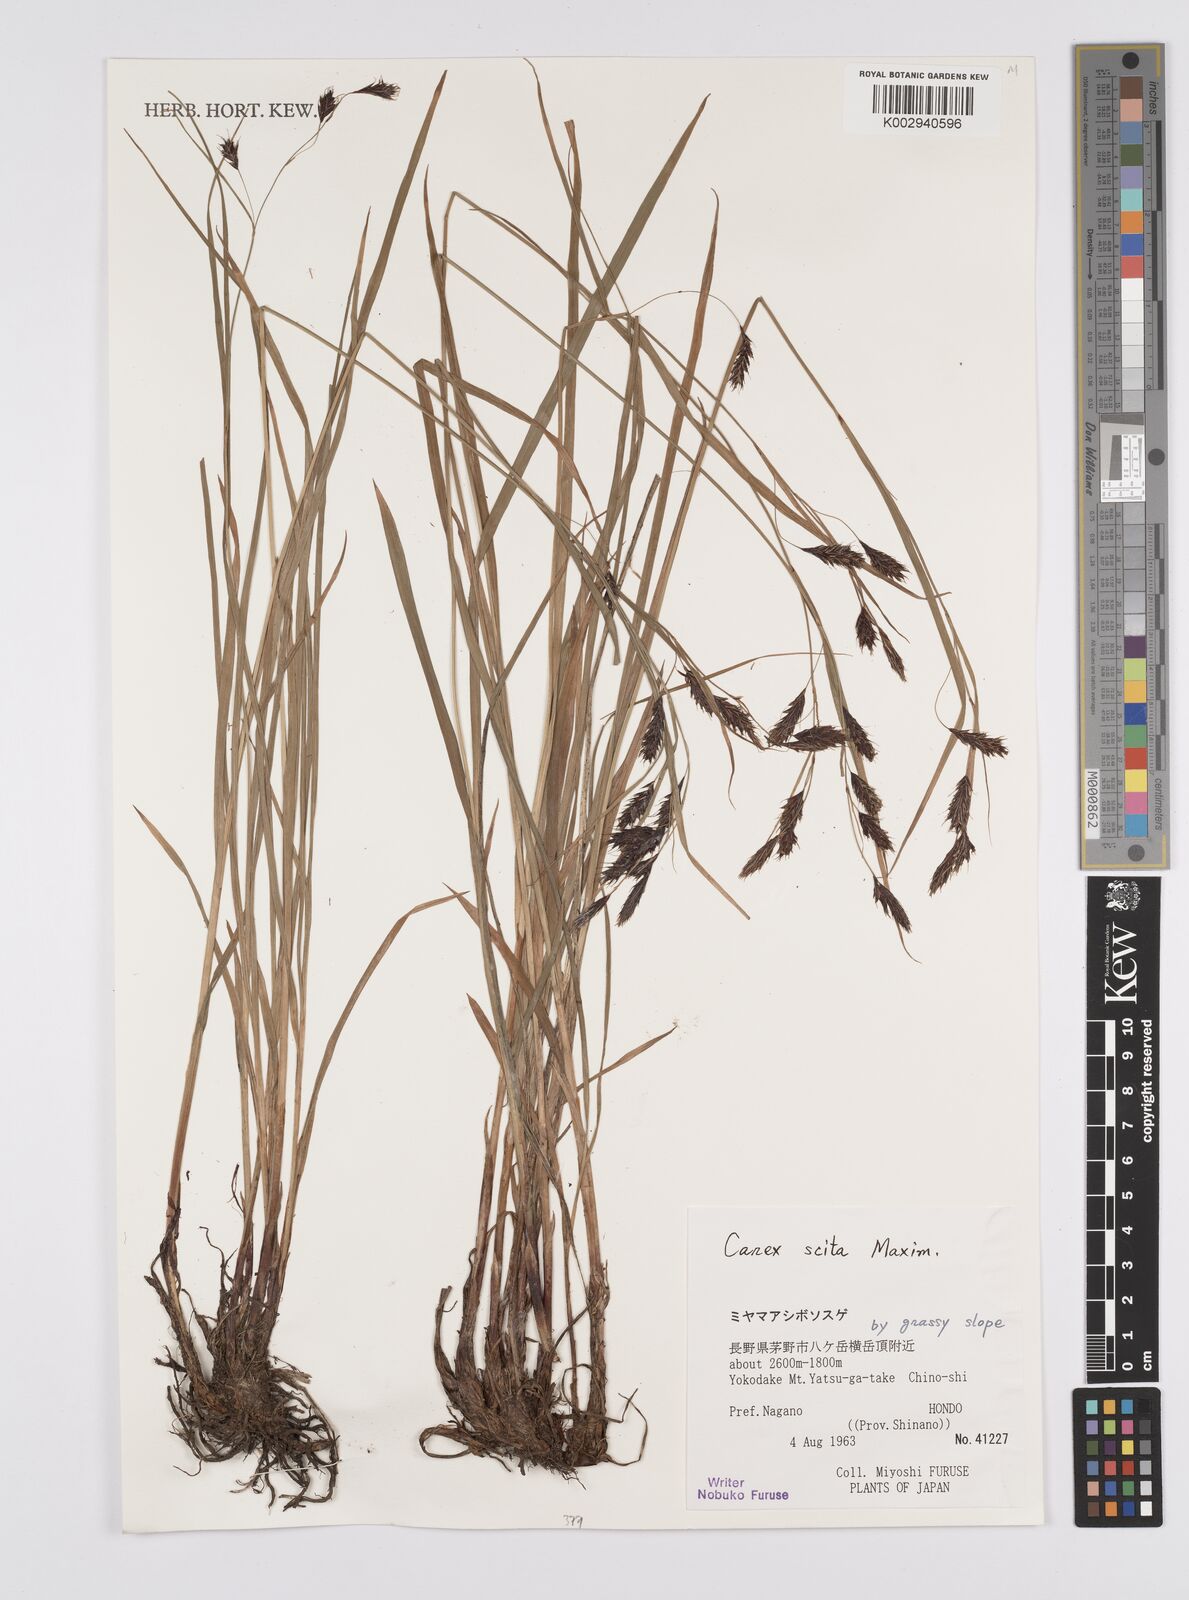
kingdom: Plantae
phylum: Tracheophyta
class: Liliopsida
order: Poales
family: Cyperaceae
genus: Carex
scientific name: Carex scita
